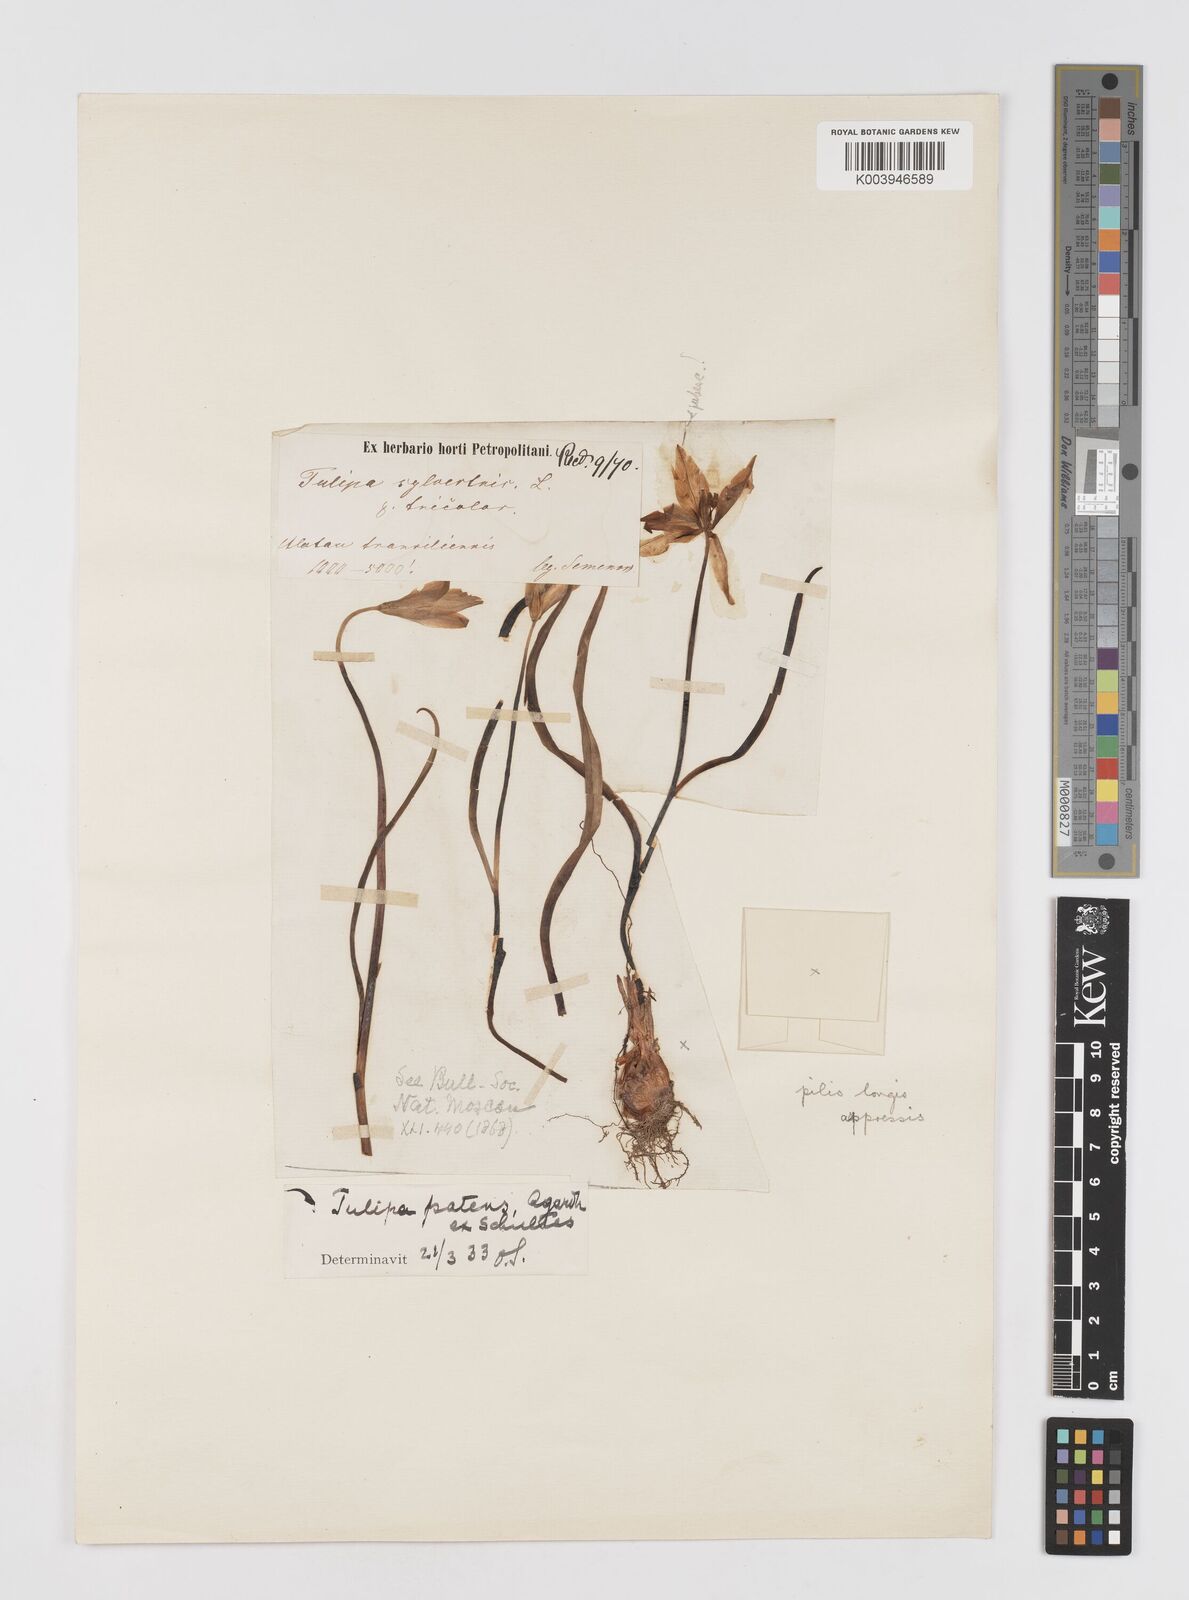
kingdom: Plantae
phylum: Tracheophyta
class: Liliopsida
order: Liliales
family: Liliaceae
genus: Tulipa
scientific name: Tulipa sylvestris
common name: Wild tulip
